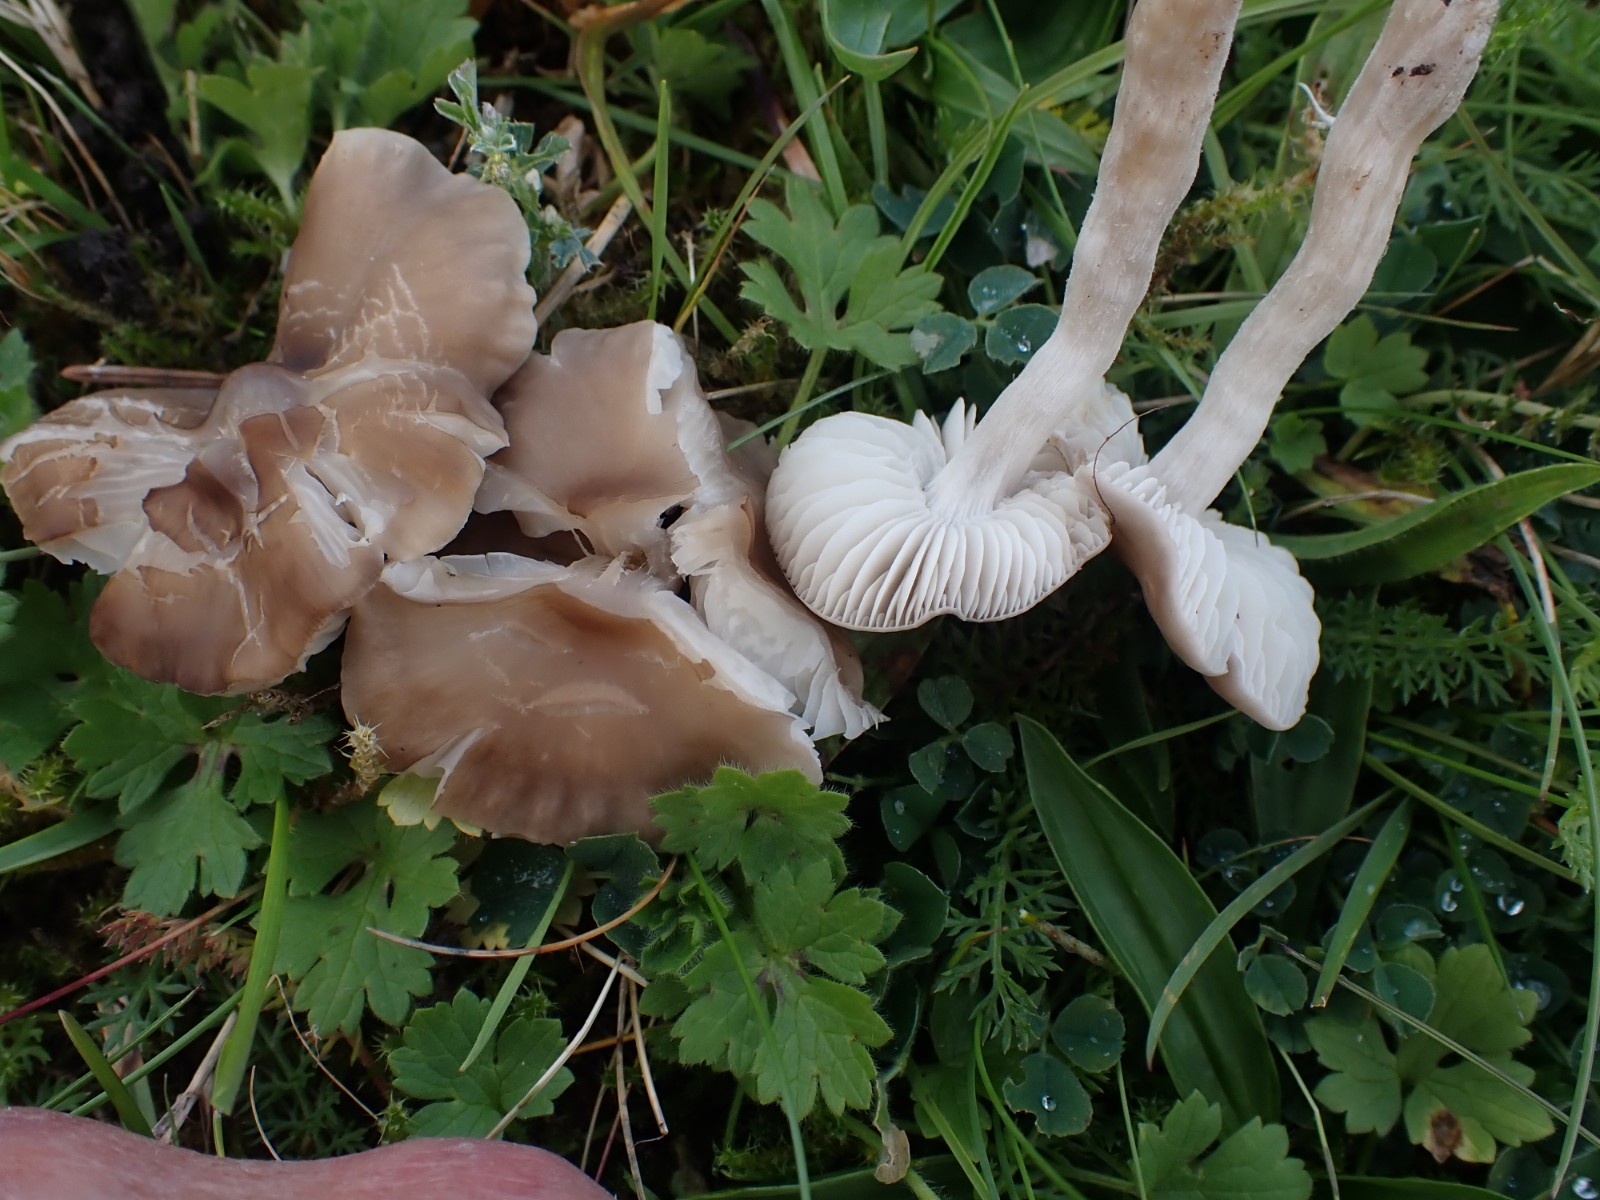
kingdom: Fungi
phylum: Basidiomycota
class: Agaricomycetes
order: Agaricales
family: Tricholomataceae
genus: Dermoloma
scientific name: Dermoloma cuneifolium
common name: eng-nonnehat
